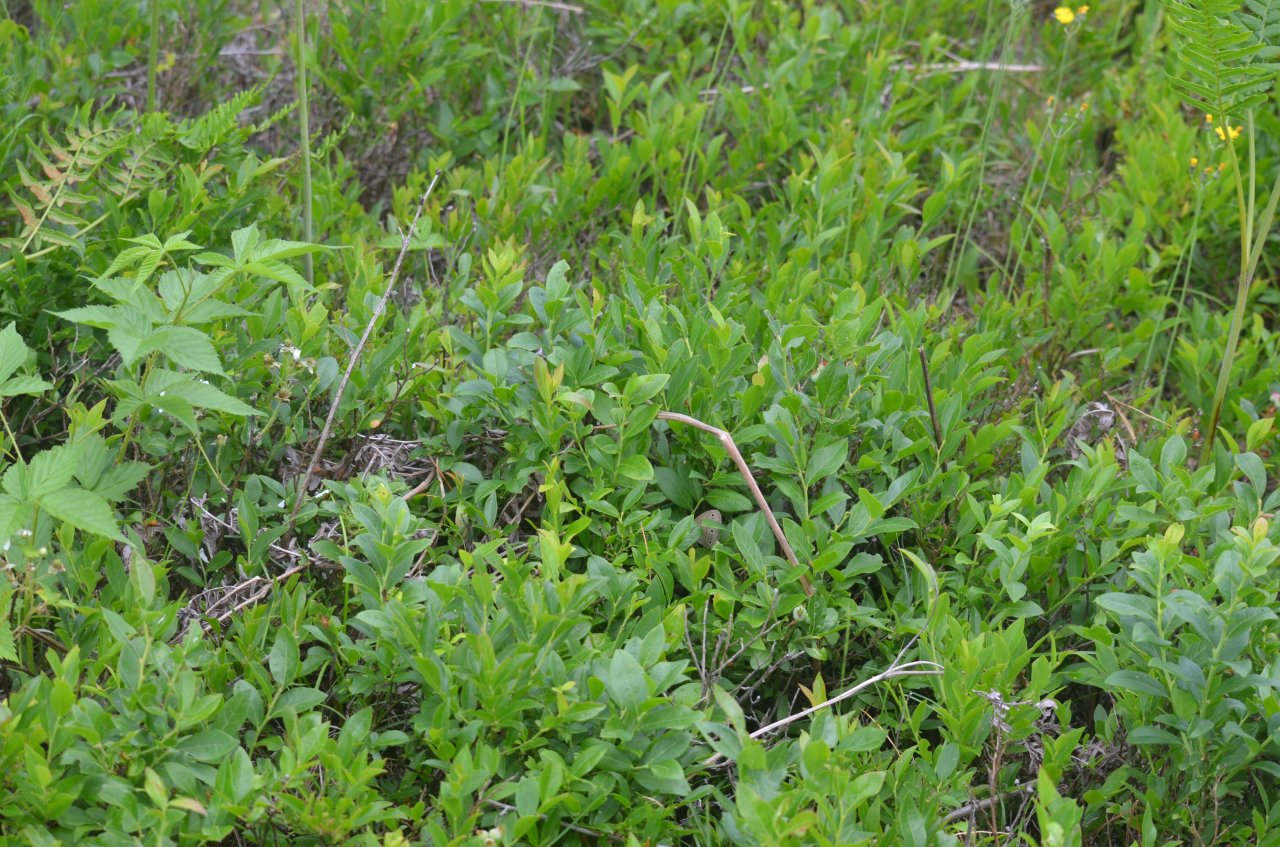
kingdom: Animalia
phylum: Arthropoda
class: Insecta
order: Lepidoptera
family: Nymphalidae
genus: Euptychia
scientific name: Euptychia cymela
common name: Little Wood Satyr
